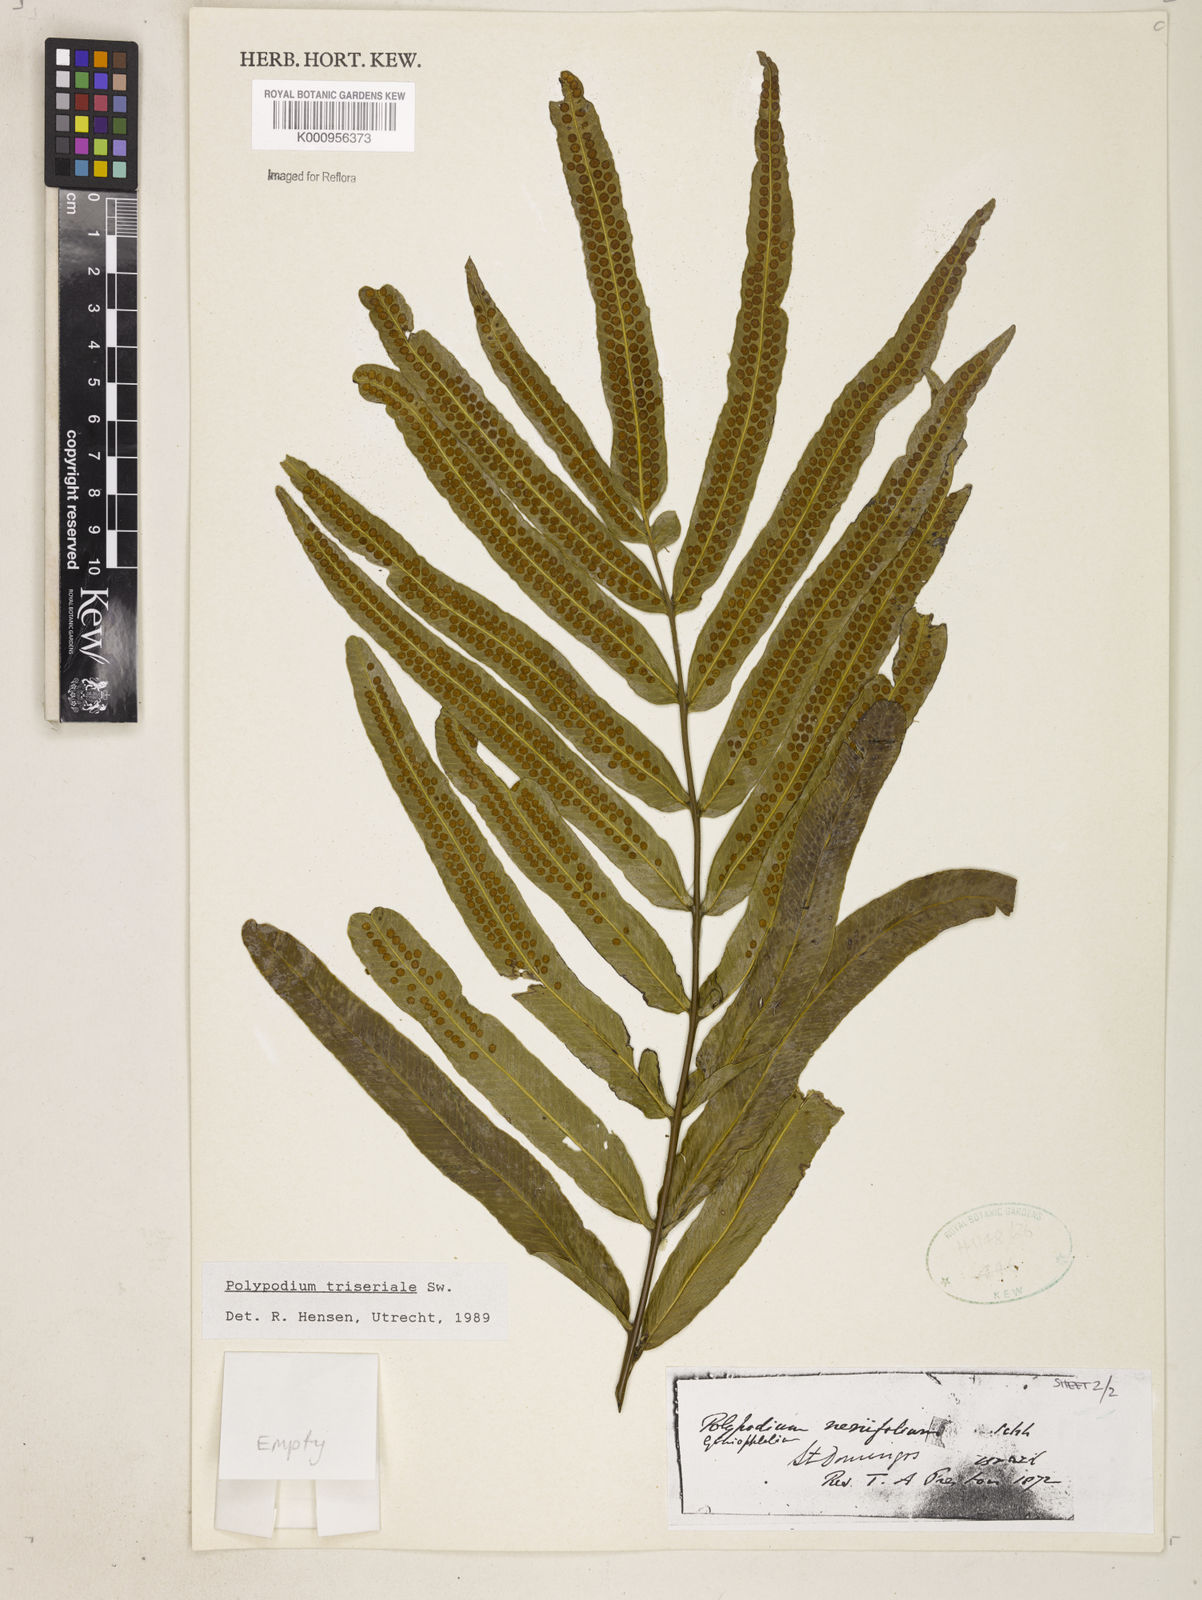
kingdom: Plantae
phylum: Tracheophyta
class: Polypodiopsida
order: Polypodiales
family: Polypodiaceae
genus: Serpocaulon
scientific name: Serpocaulon triseriale
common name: Angle-vein fern
